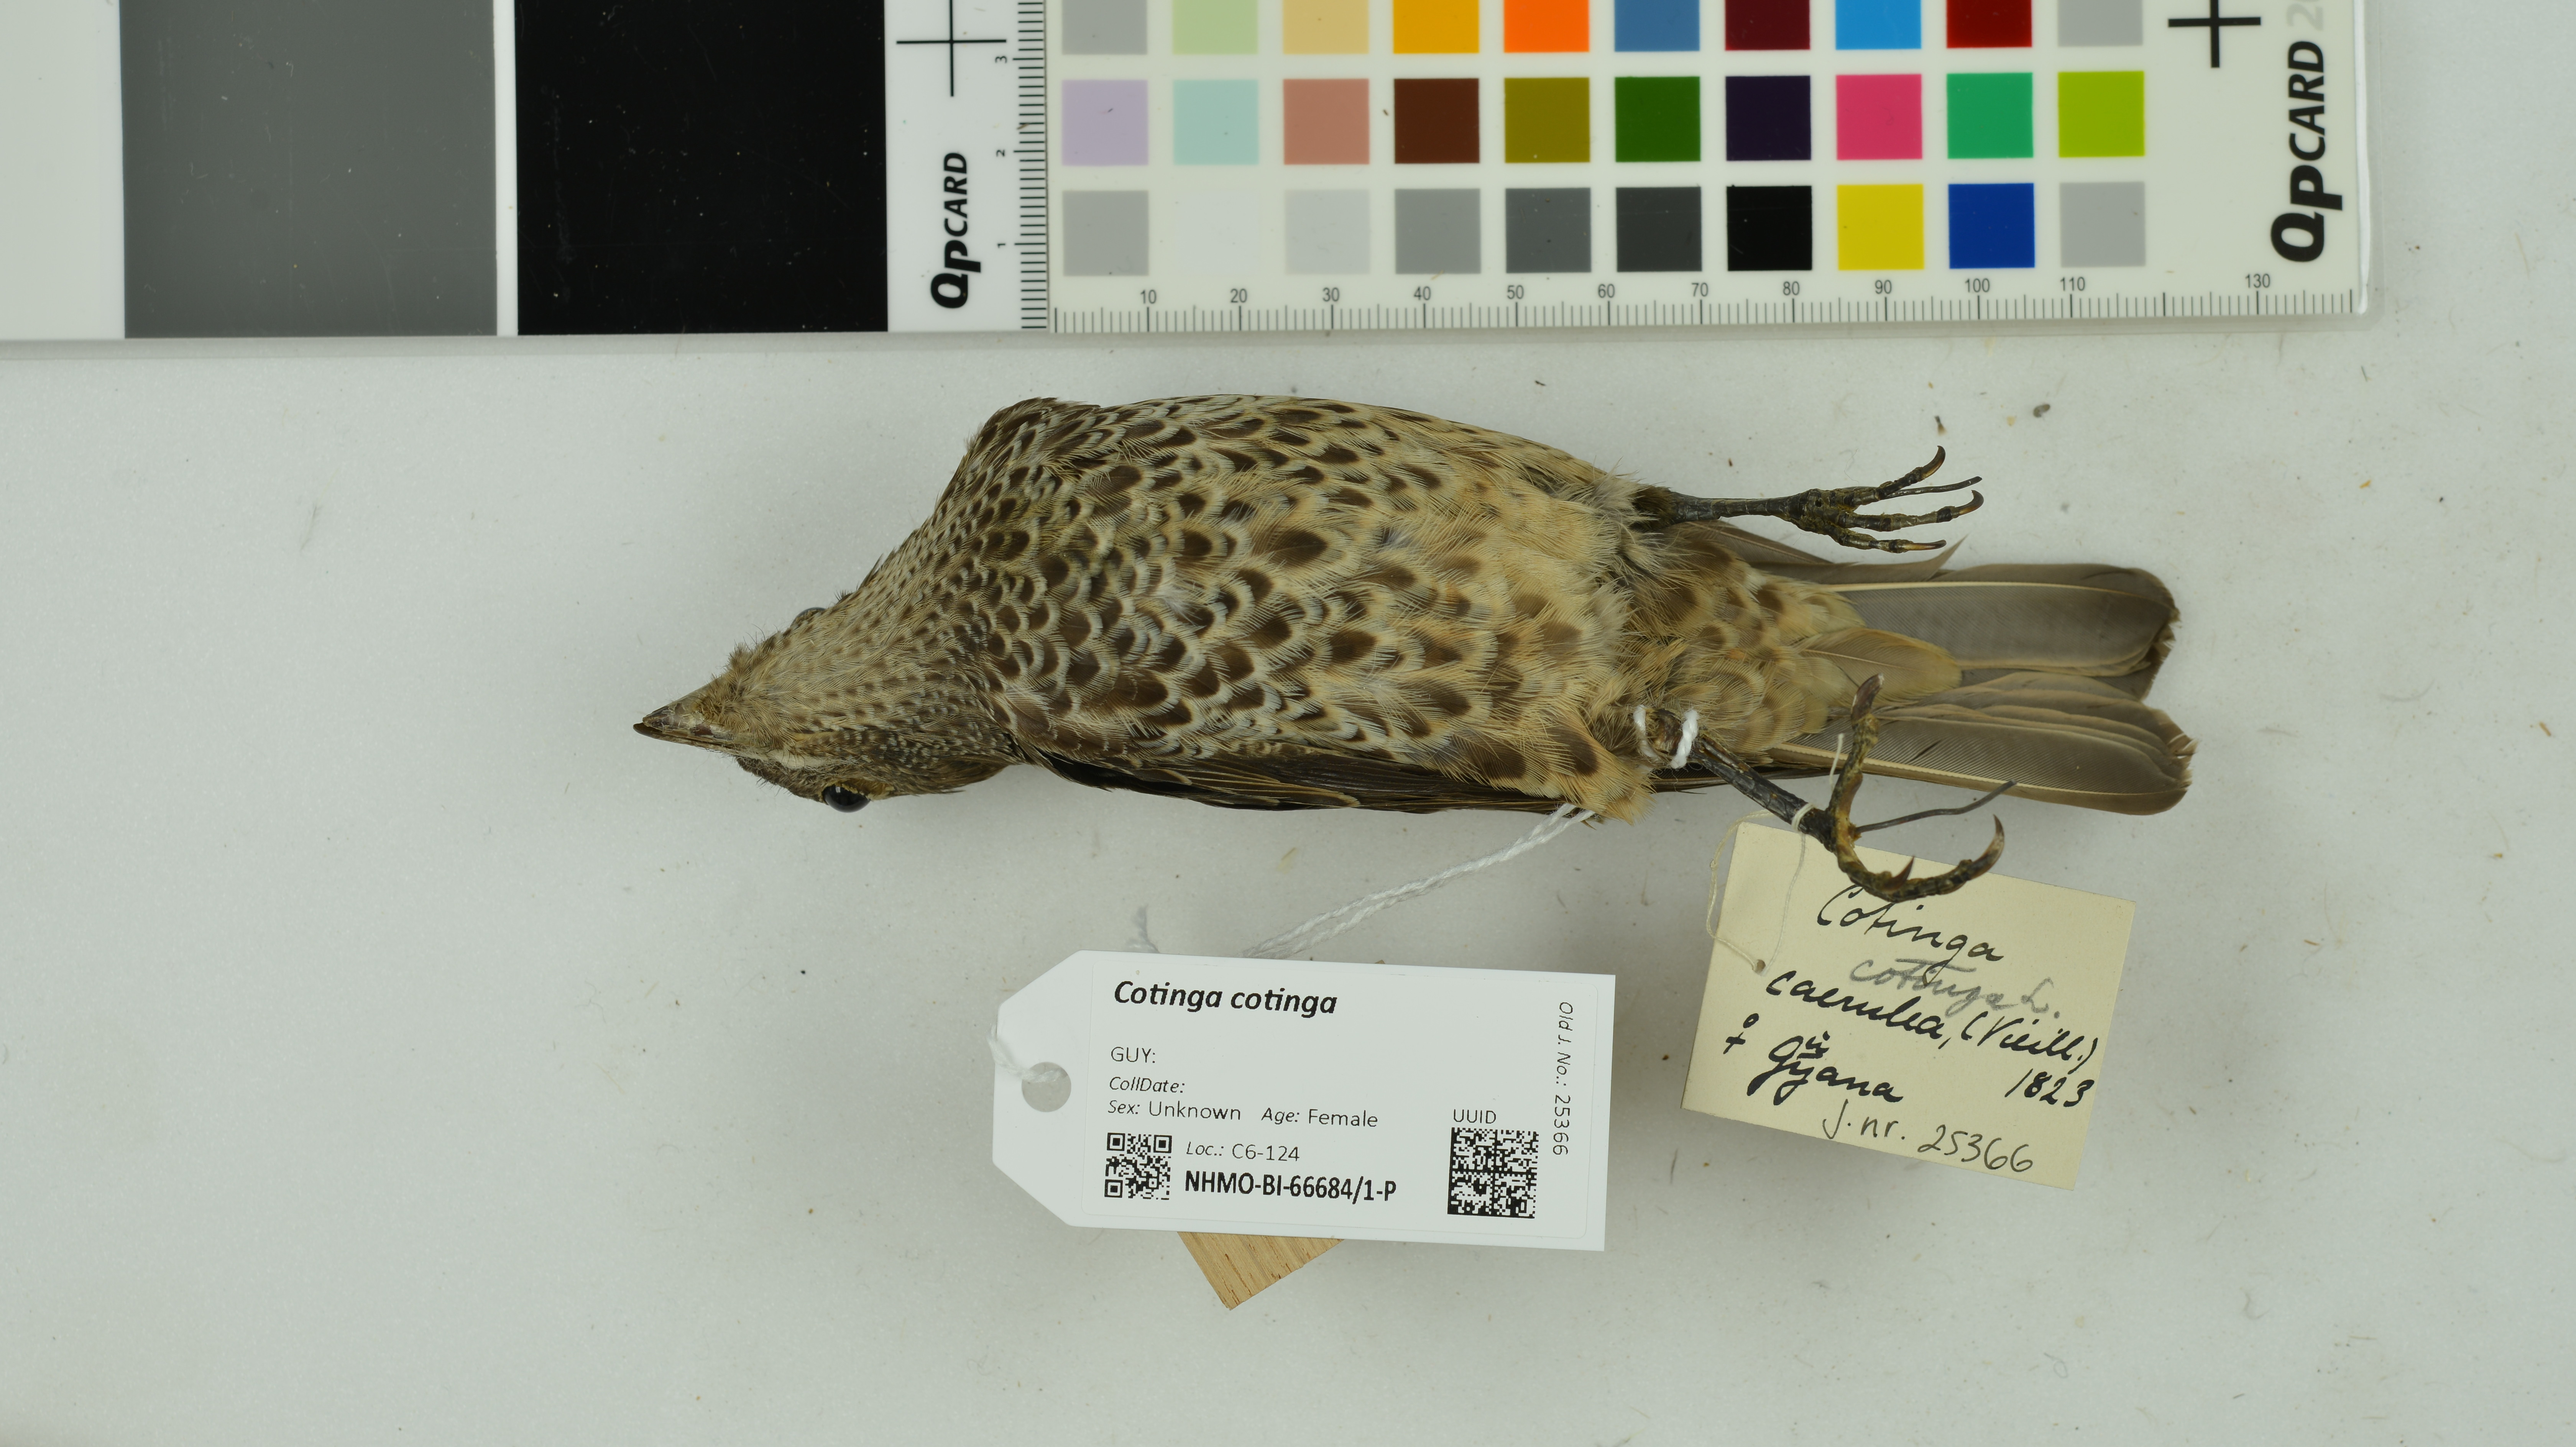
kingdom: Animalia
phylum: Chordata
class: Aves
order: Passeriformes
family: Cotingidae
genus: Cotinga
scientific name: Cotinga cotinga
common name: Purple-breasted cotinga
